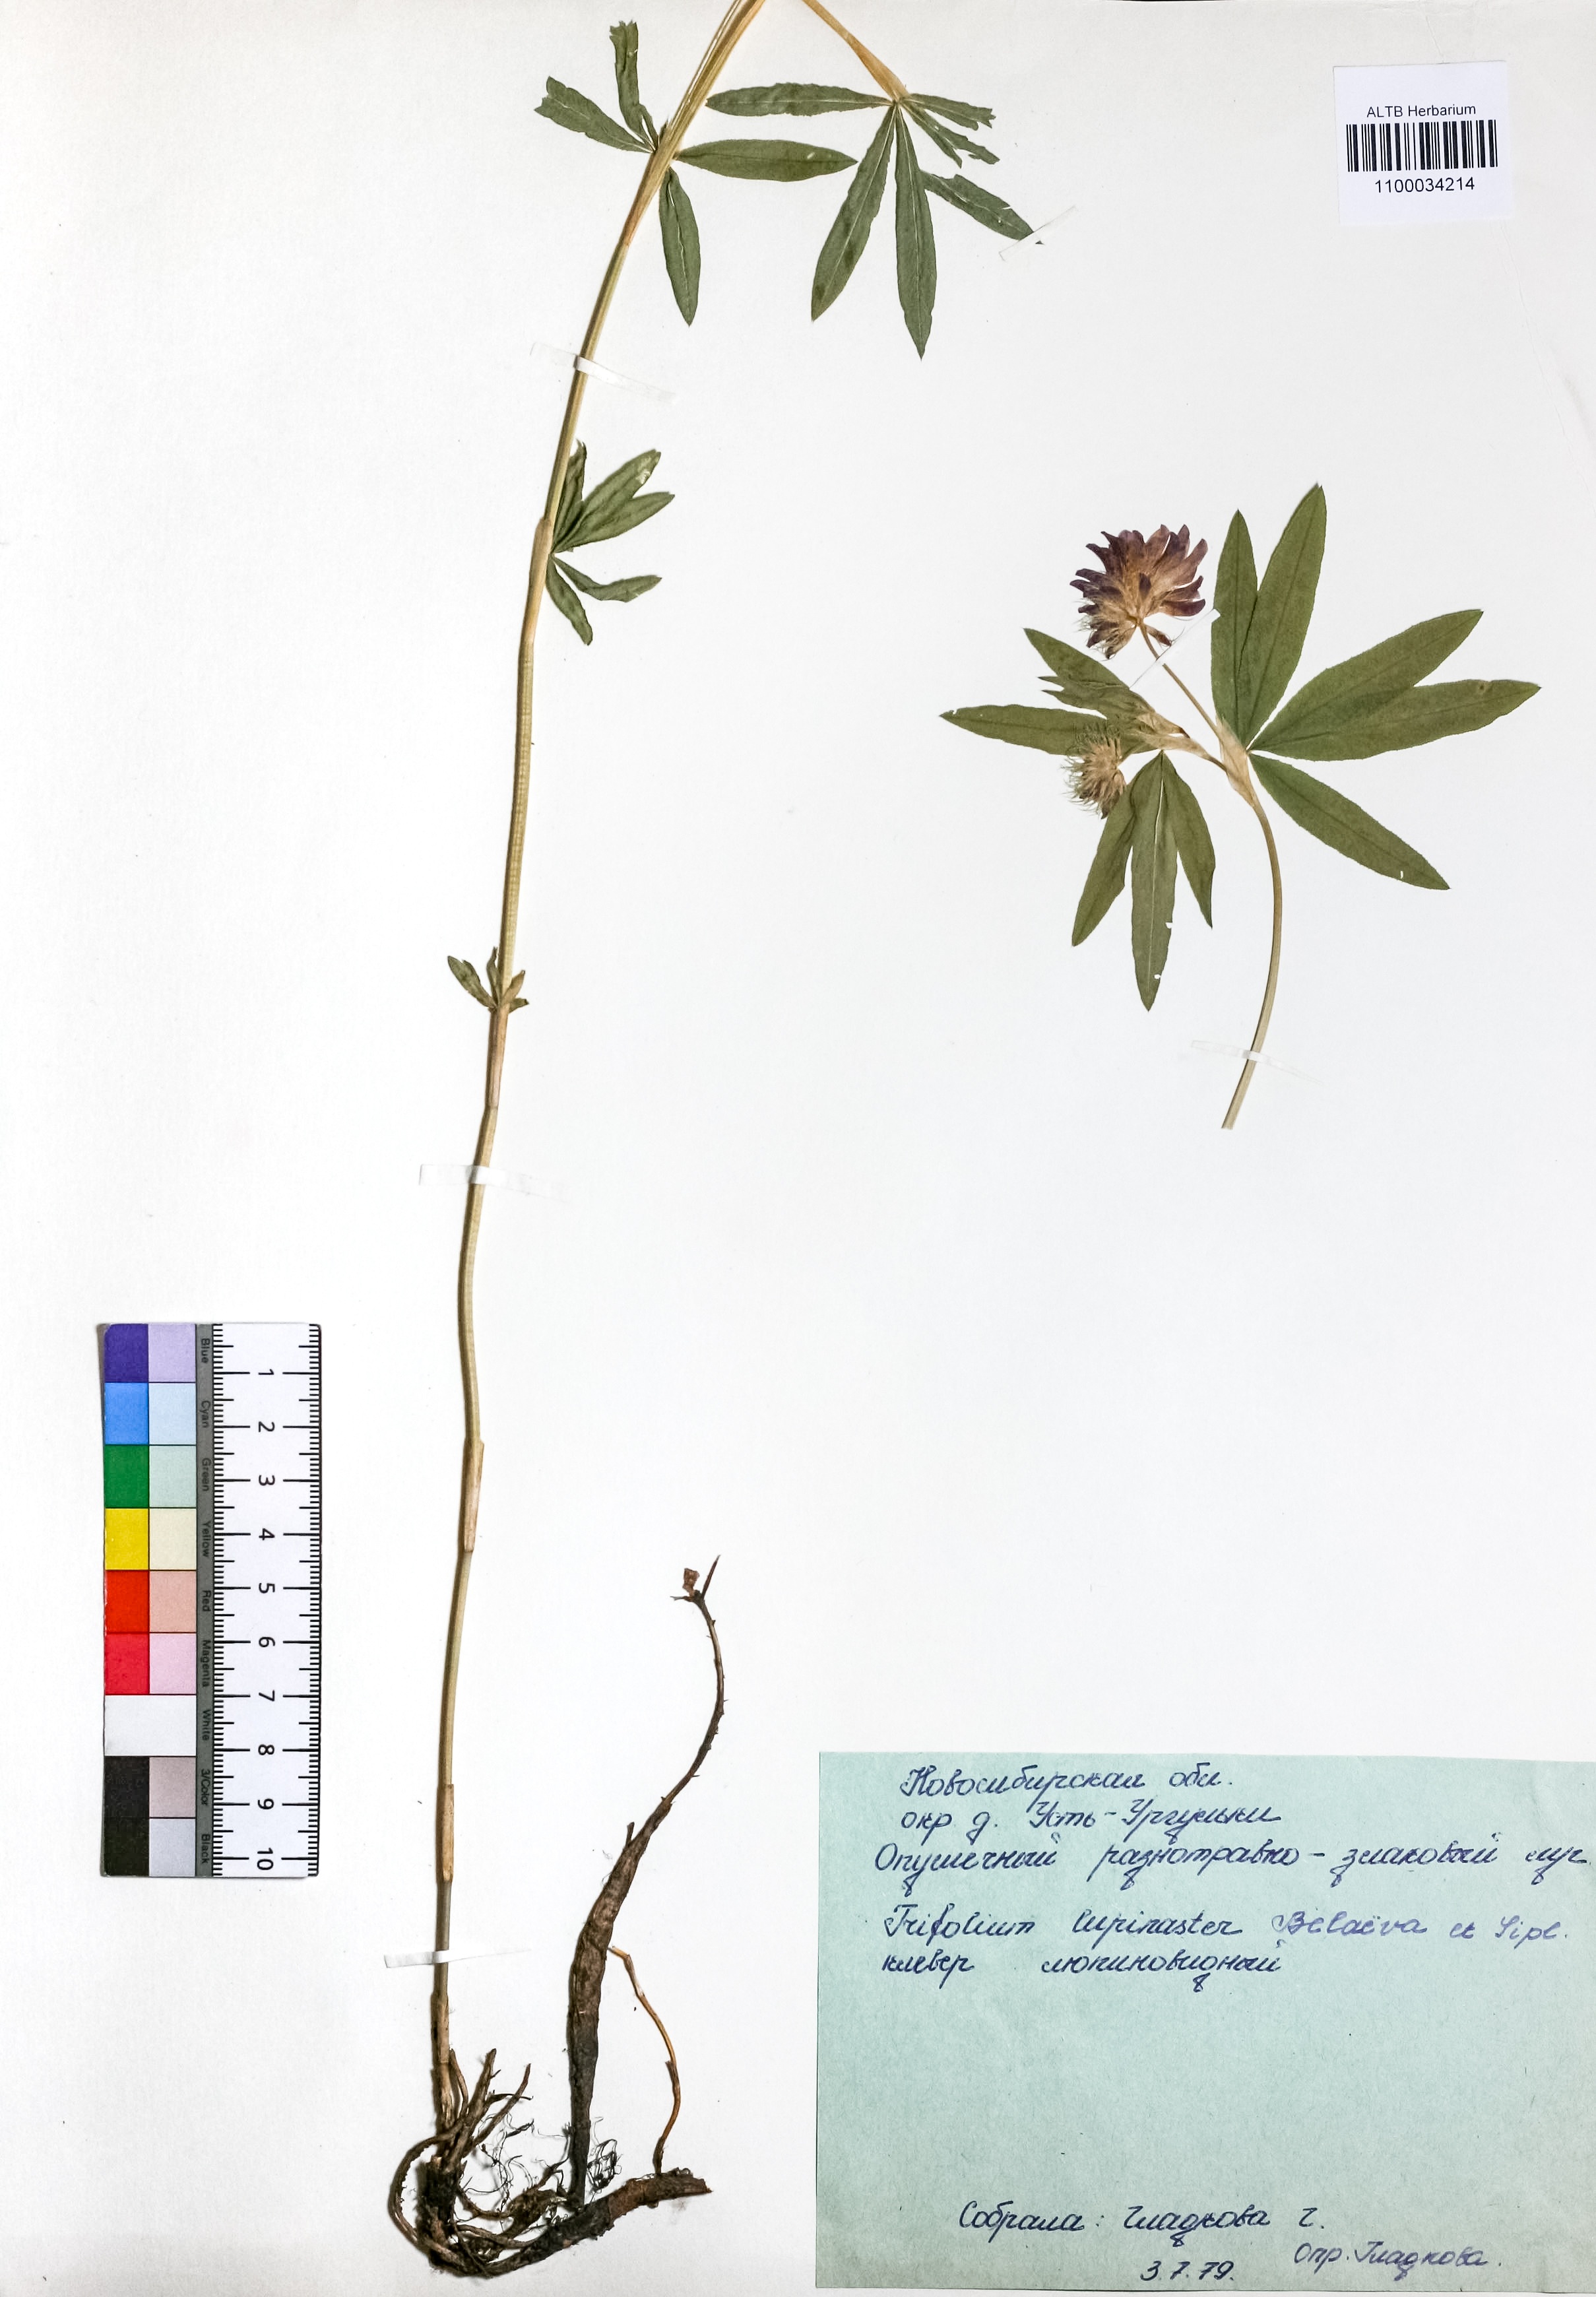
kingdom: Plantae
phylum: Tracheophyta
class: Magnoliopsida
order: Fabales
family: Fabaceae
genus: Trifolium
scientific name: Trifolium lupinaster
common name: Lupine clover
